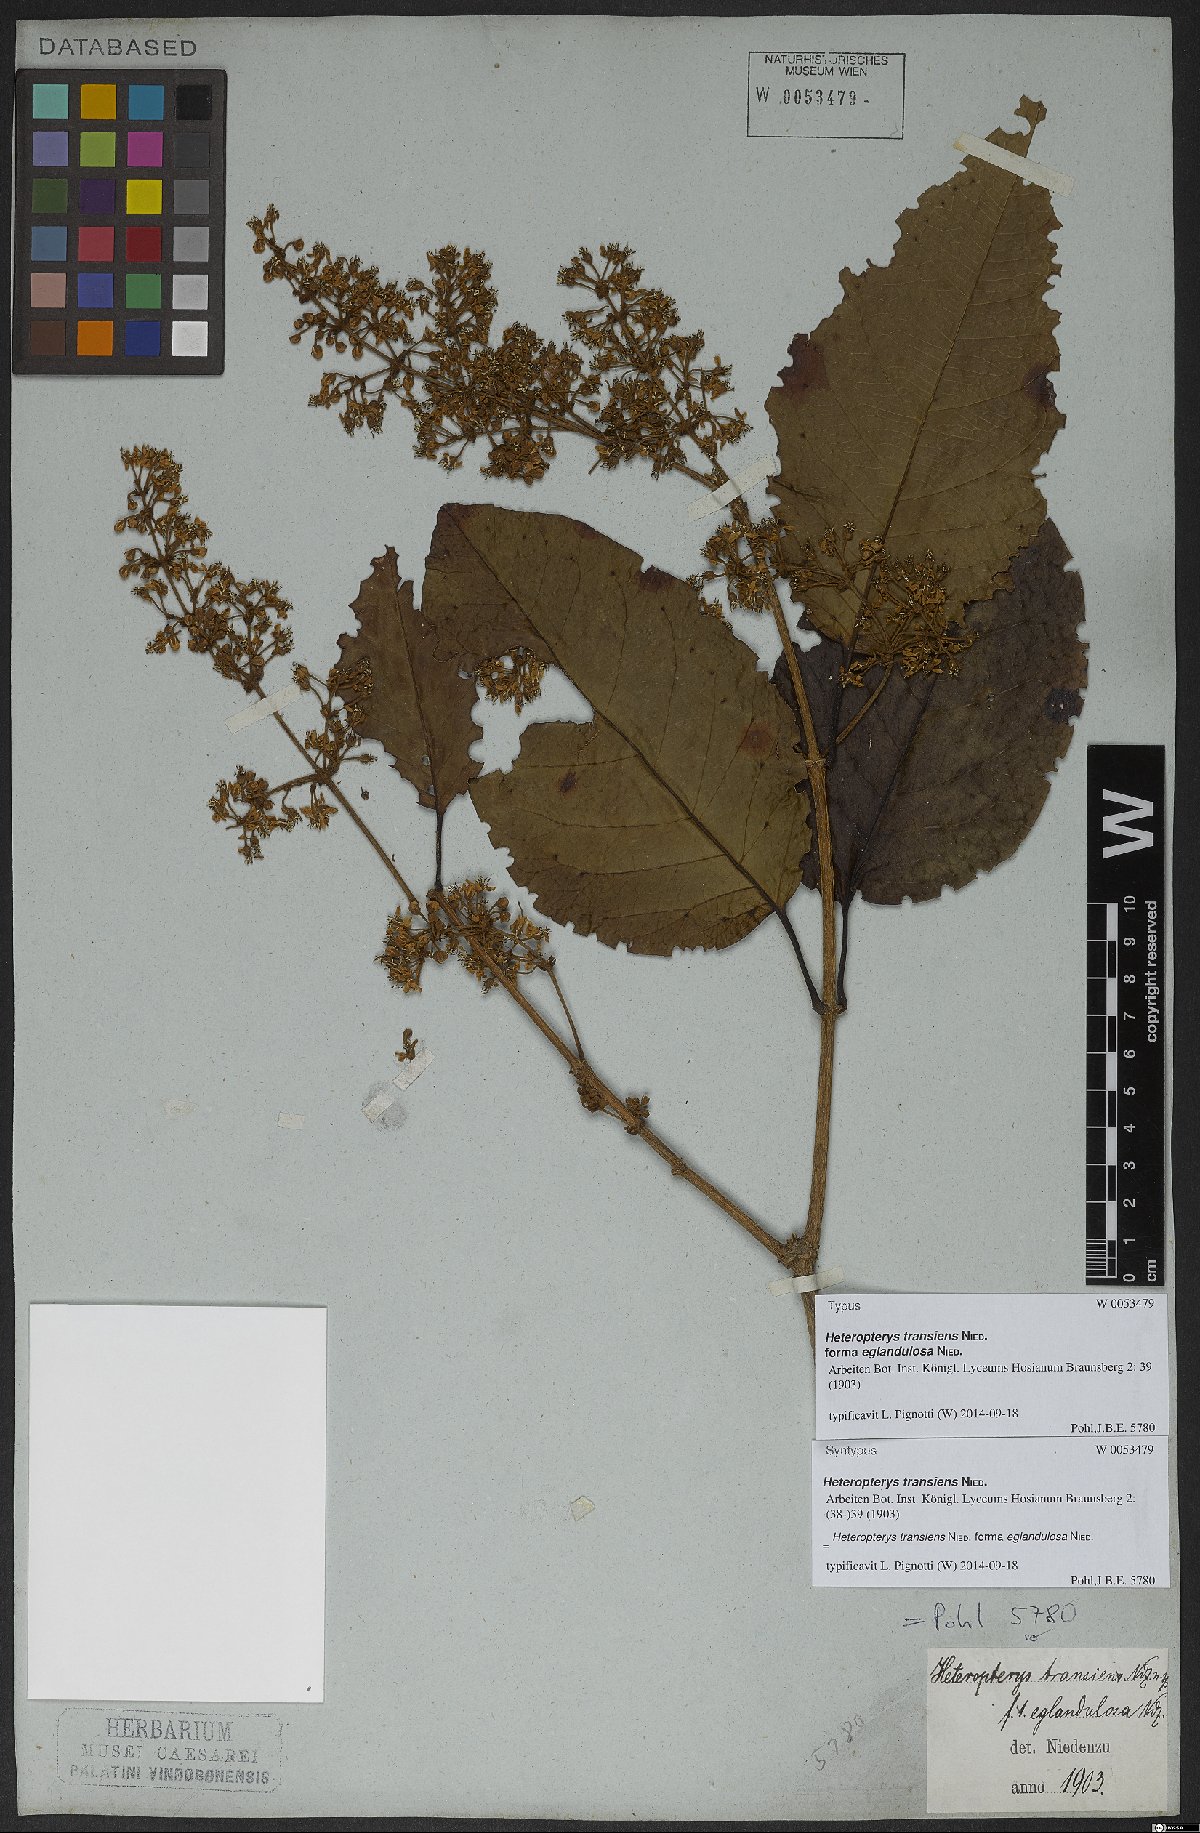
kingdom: Plantae
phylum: Tracheophyta
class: Magnoliopsida
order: Malpighiales
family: Malpighiaceae
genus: Heteropterys
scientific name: Heteropterys transiens
